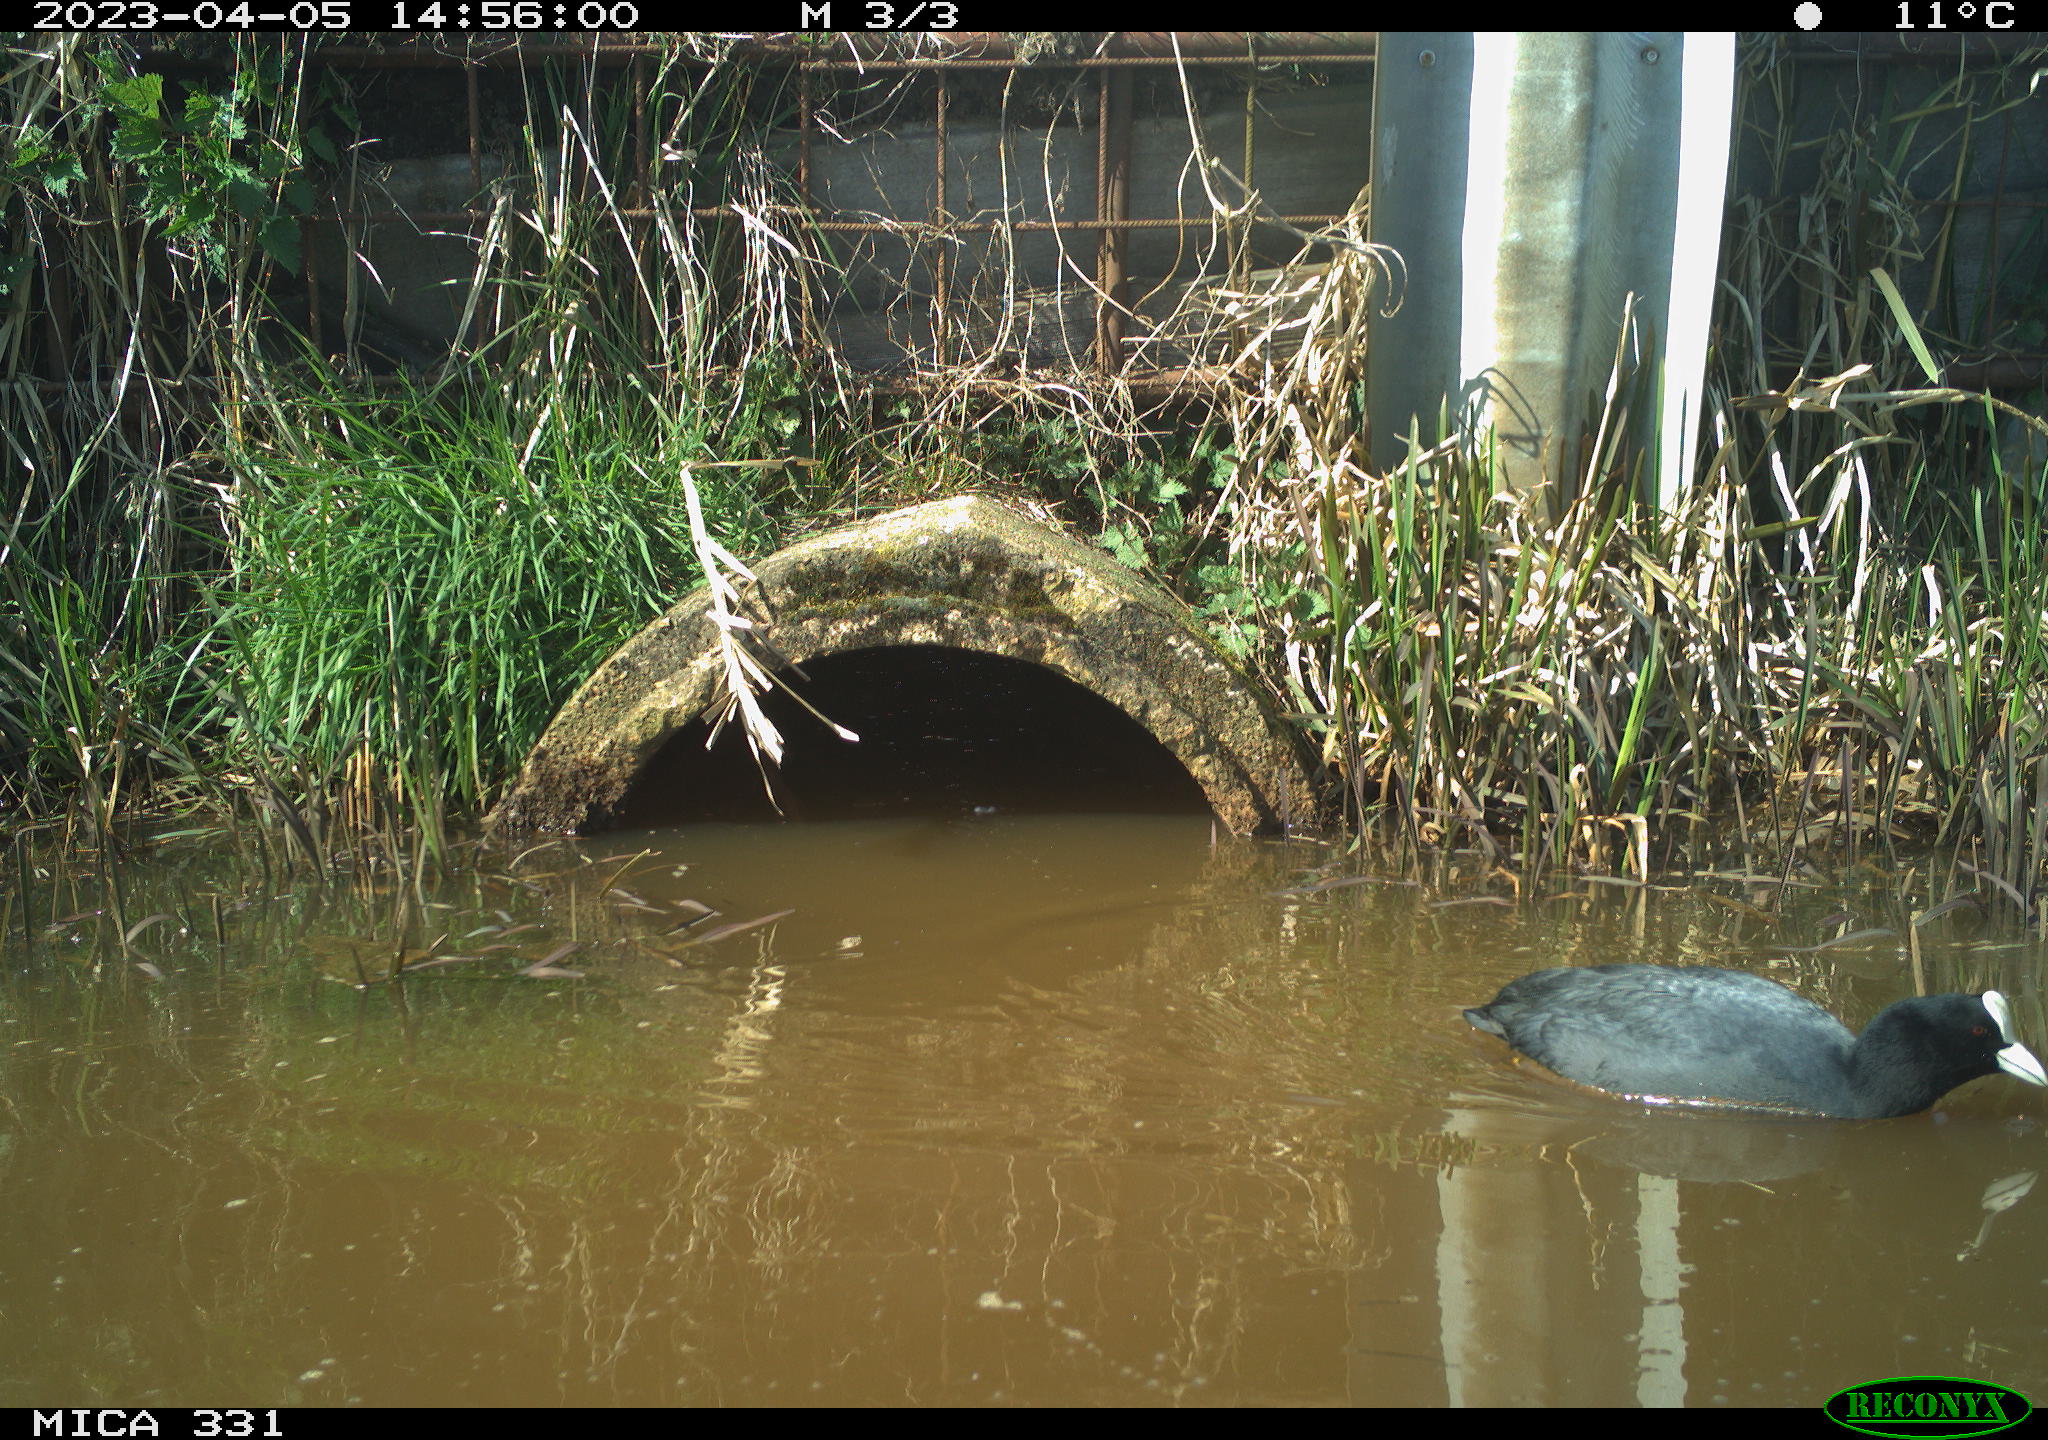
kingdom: Animalia
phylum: Chordata
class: Aves
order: Gruiformes
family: Rallidae
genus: Fulica
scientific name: Fulica atra
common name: Eurasian coot
